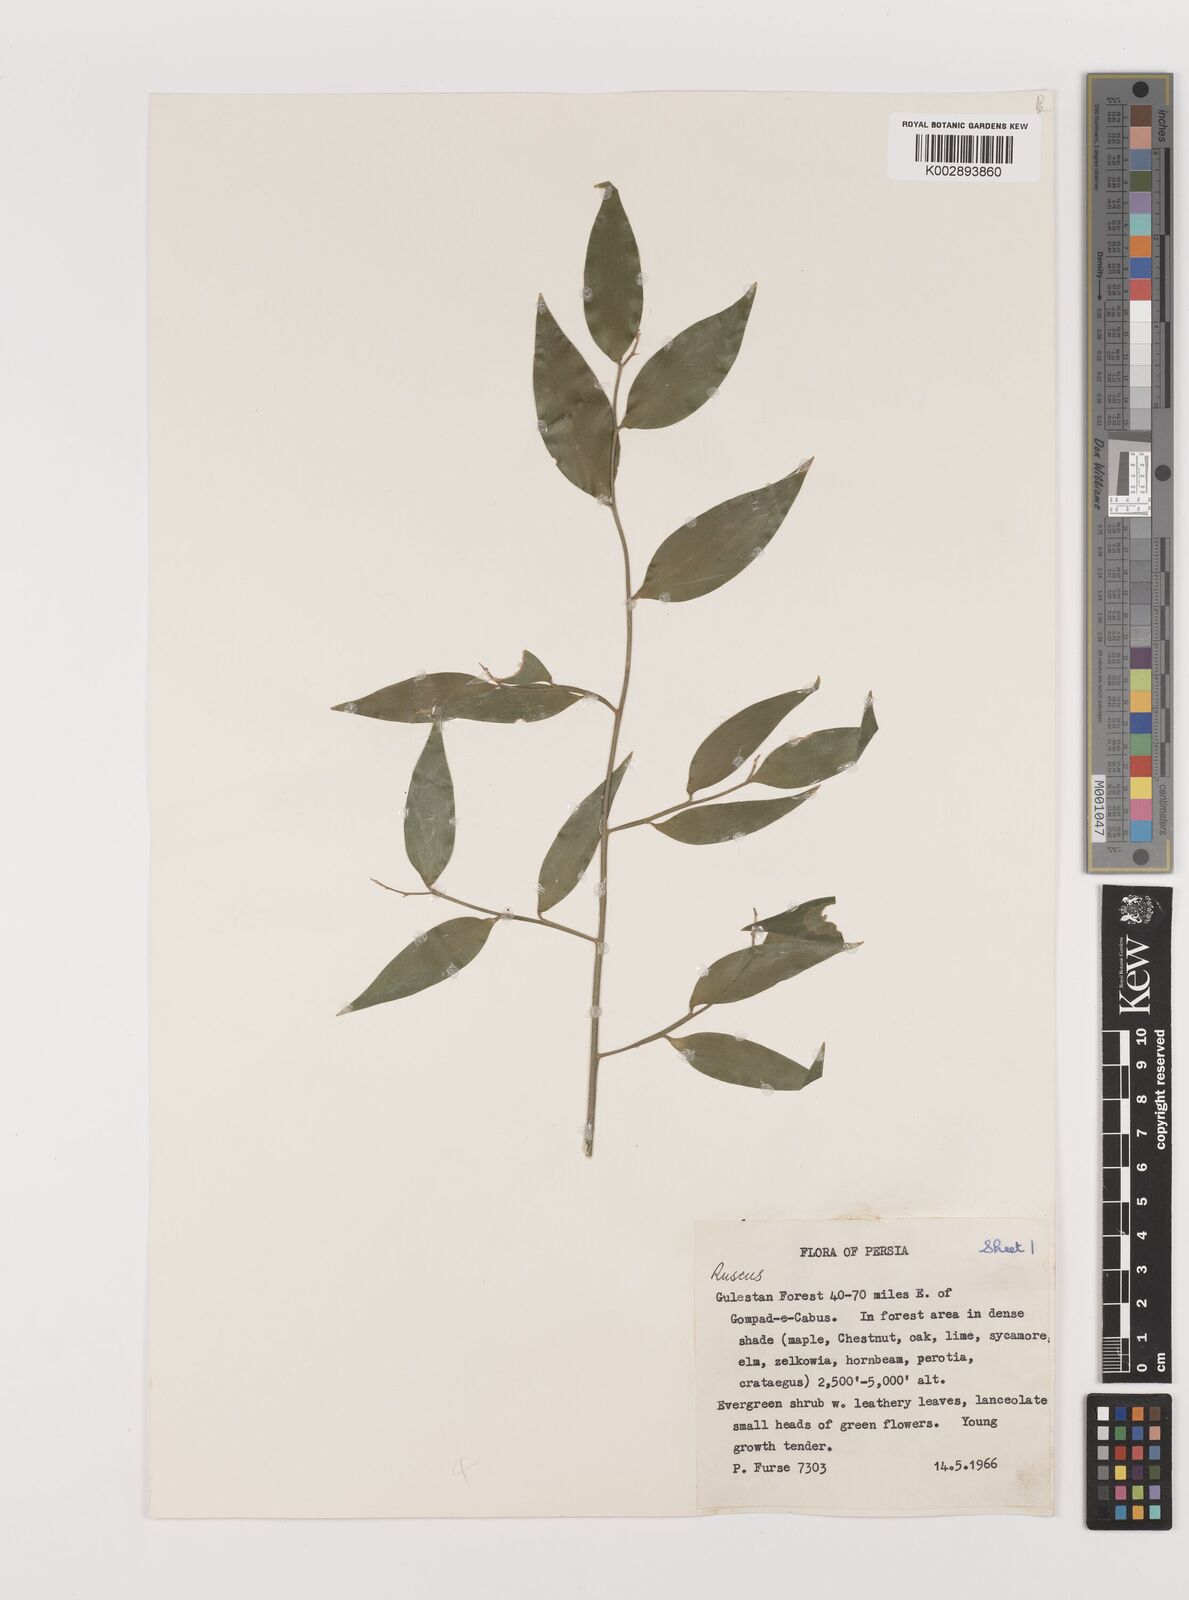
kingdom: Plantae
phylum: Tracheophyta
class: Liliopsida
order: Asparagales
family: Asparagaceae
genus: Danae
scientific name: Danae racemosa
